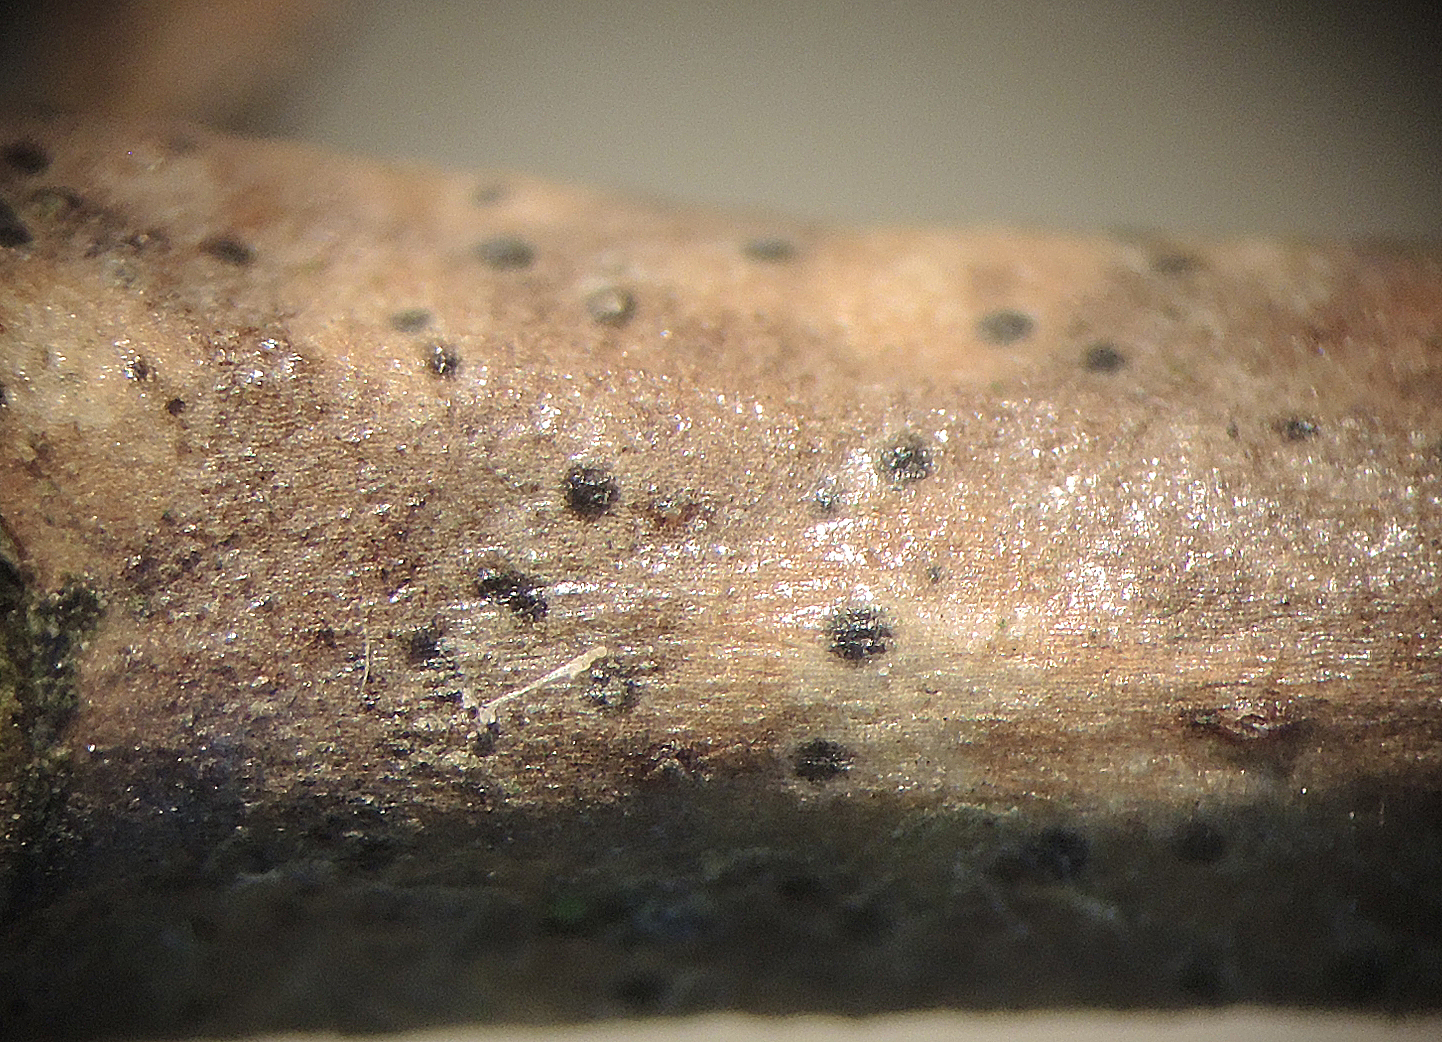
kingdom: Fungi
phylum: Ascomycota
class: Sordariomycetes
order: Xylariales
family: Vialaeaceae
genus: Vialaea
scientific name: Vialaea insculpta
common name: kristtornkerne
